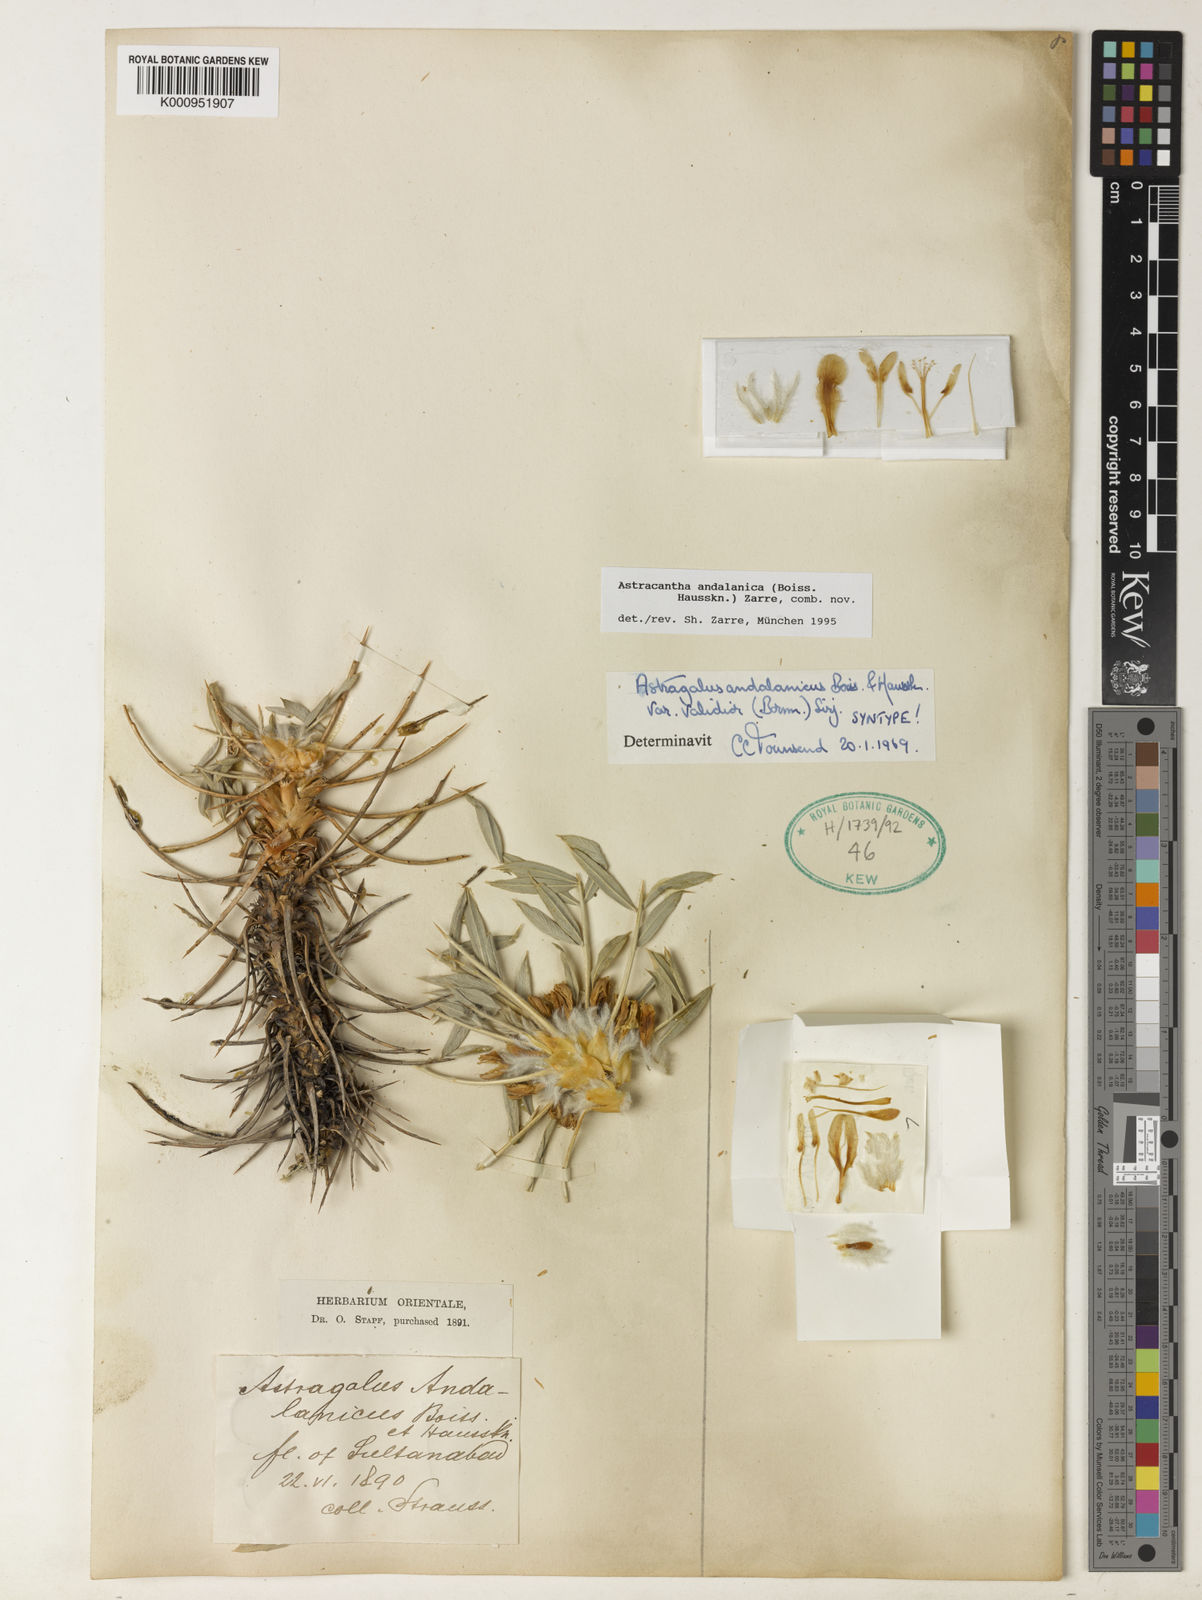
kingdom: Plantae
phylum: Tracheophyta
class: Magnoliopsida
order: Fabales
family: Fabaceae
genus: Astragalus
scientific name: Astragalus andalanicus
